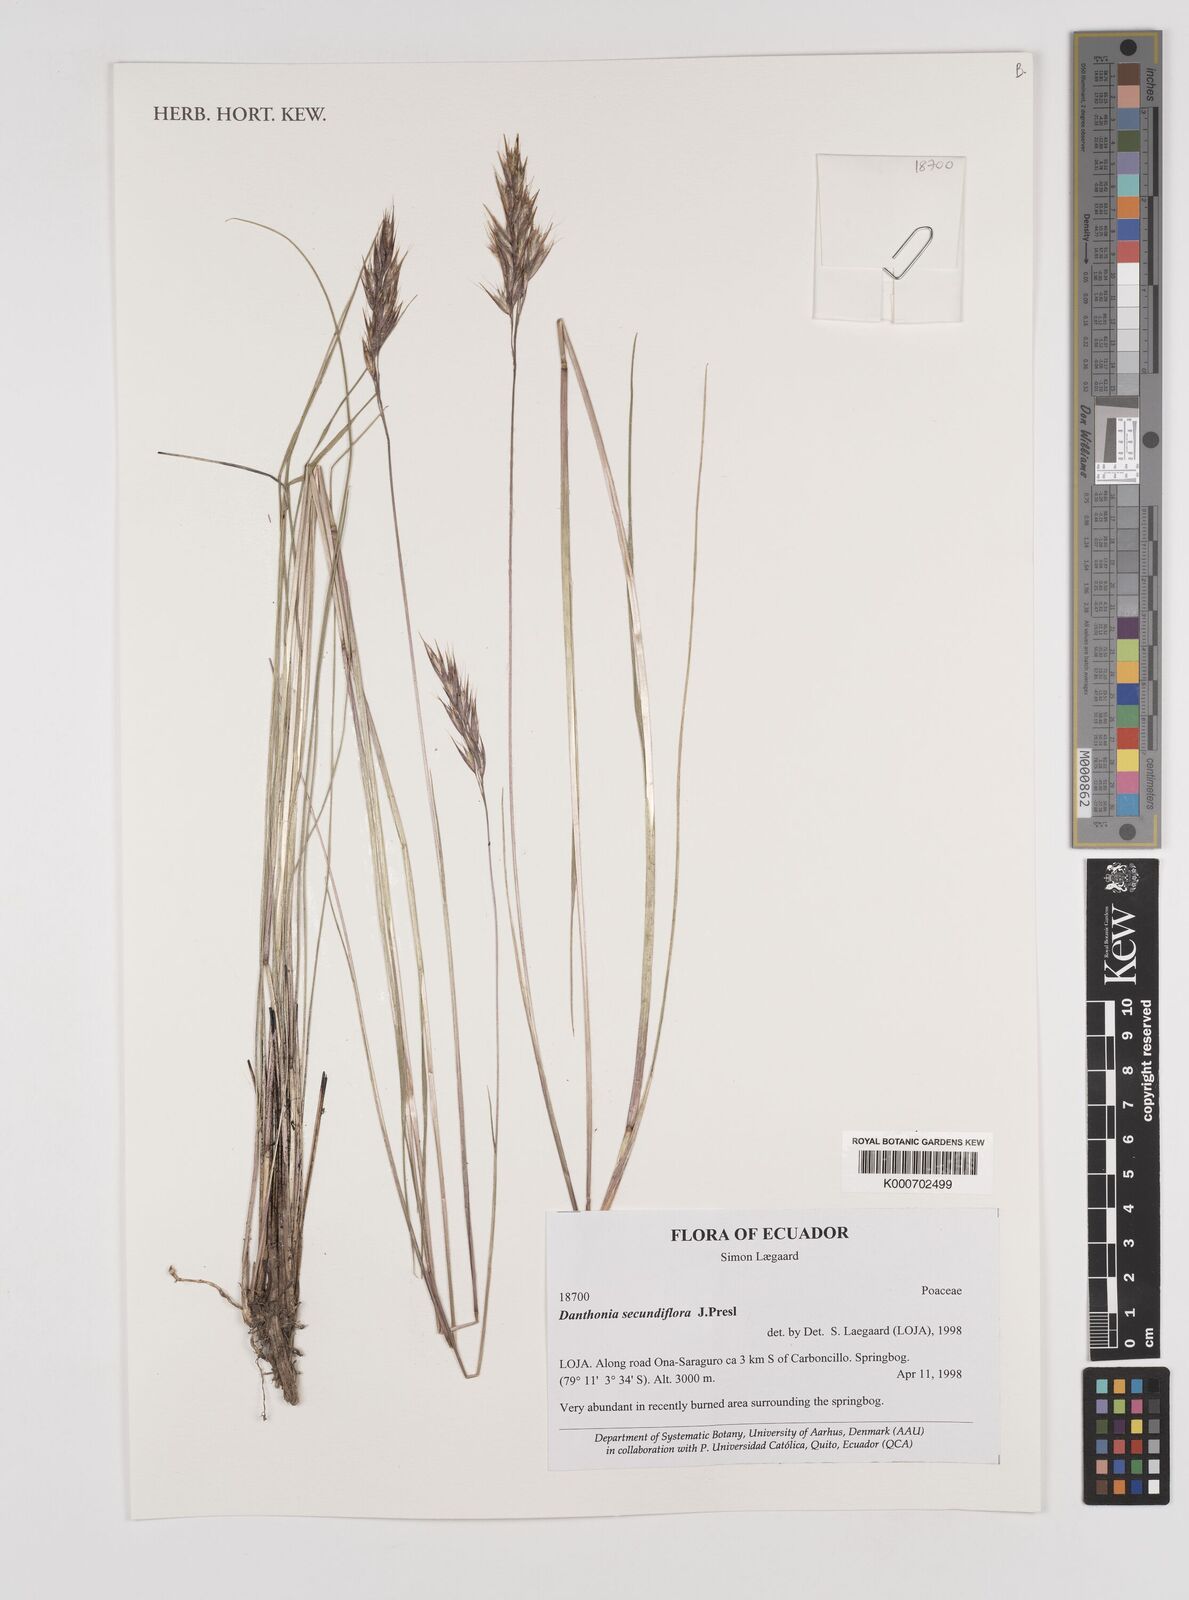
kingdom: Plantae
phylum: Tracheophyta
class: Liliopsida
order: Poales
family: Poaceae
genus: Danthonia
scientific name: Danthonia secundiflora
